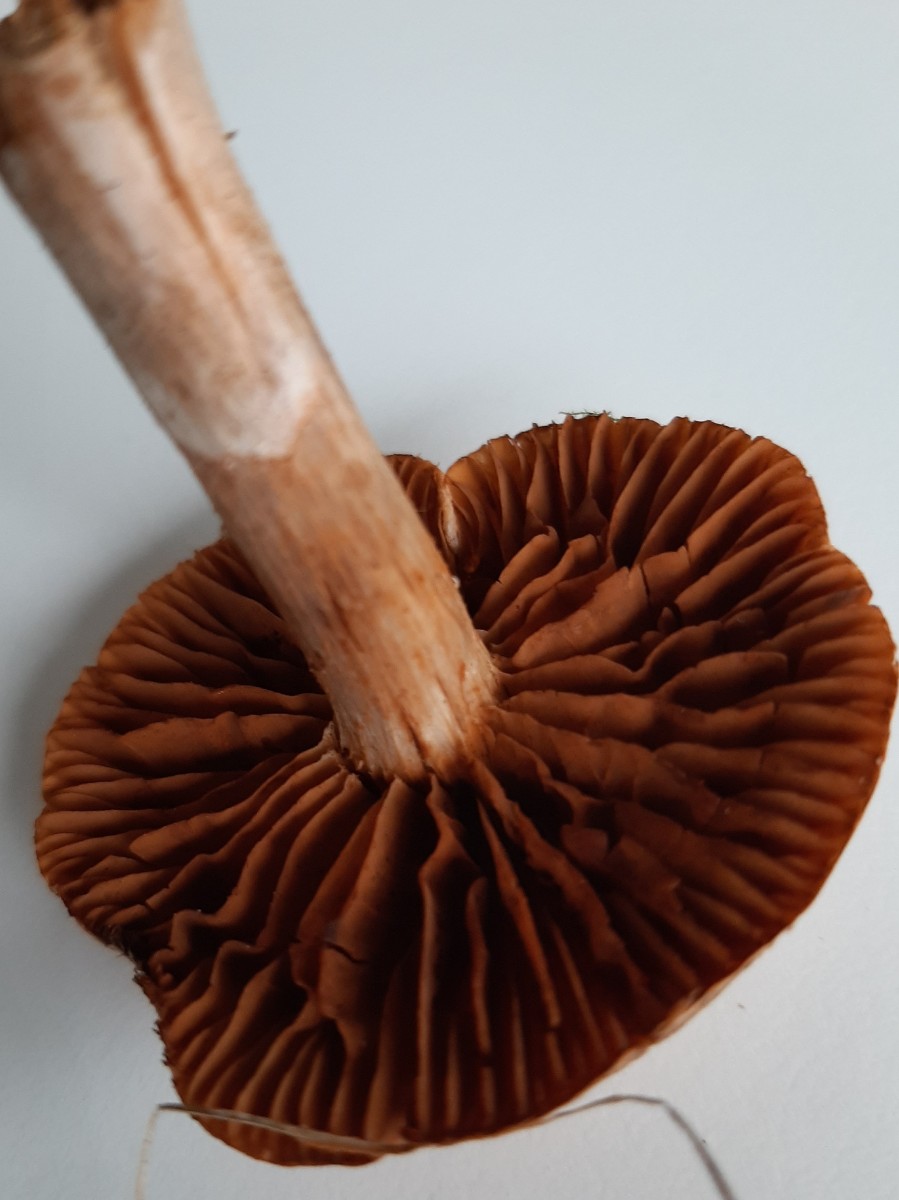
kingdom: Fungi
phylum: Basidiomycota
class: Agaricomycetes
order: Agaricales
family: Cortinariaceae
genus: Cortinarius
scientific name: Cortinarius
